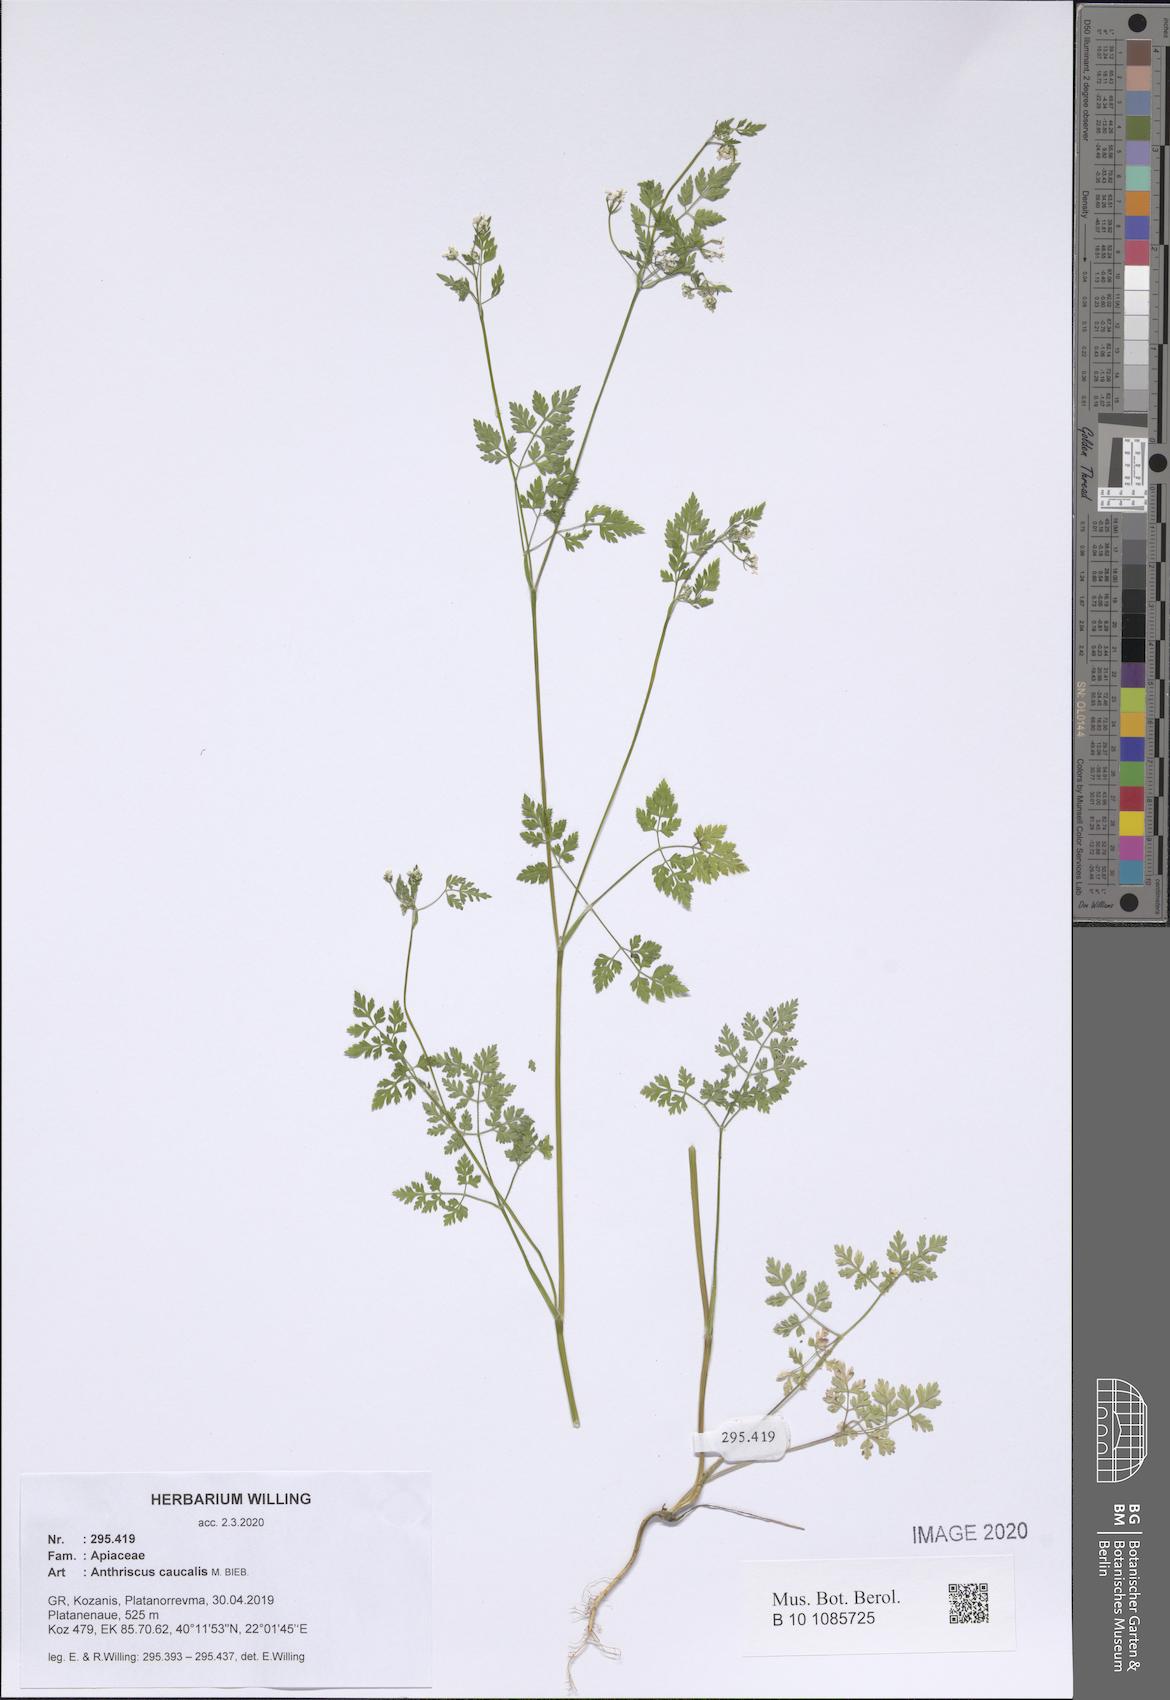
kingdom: Plantae
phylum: Tracheophyta
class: Magnoliopsida
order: Apiales
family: Apiaceae
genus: Anthriscus
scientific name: Anthriscus caucalis
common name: Bur chervil
